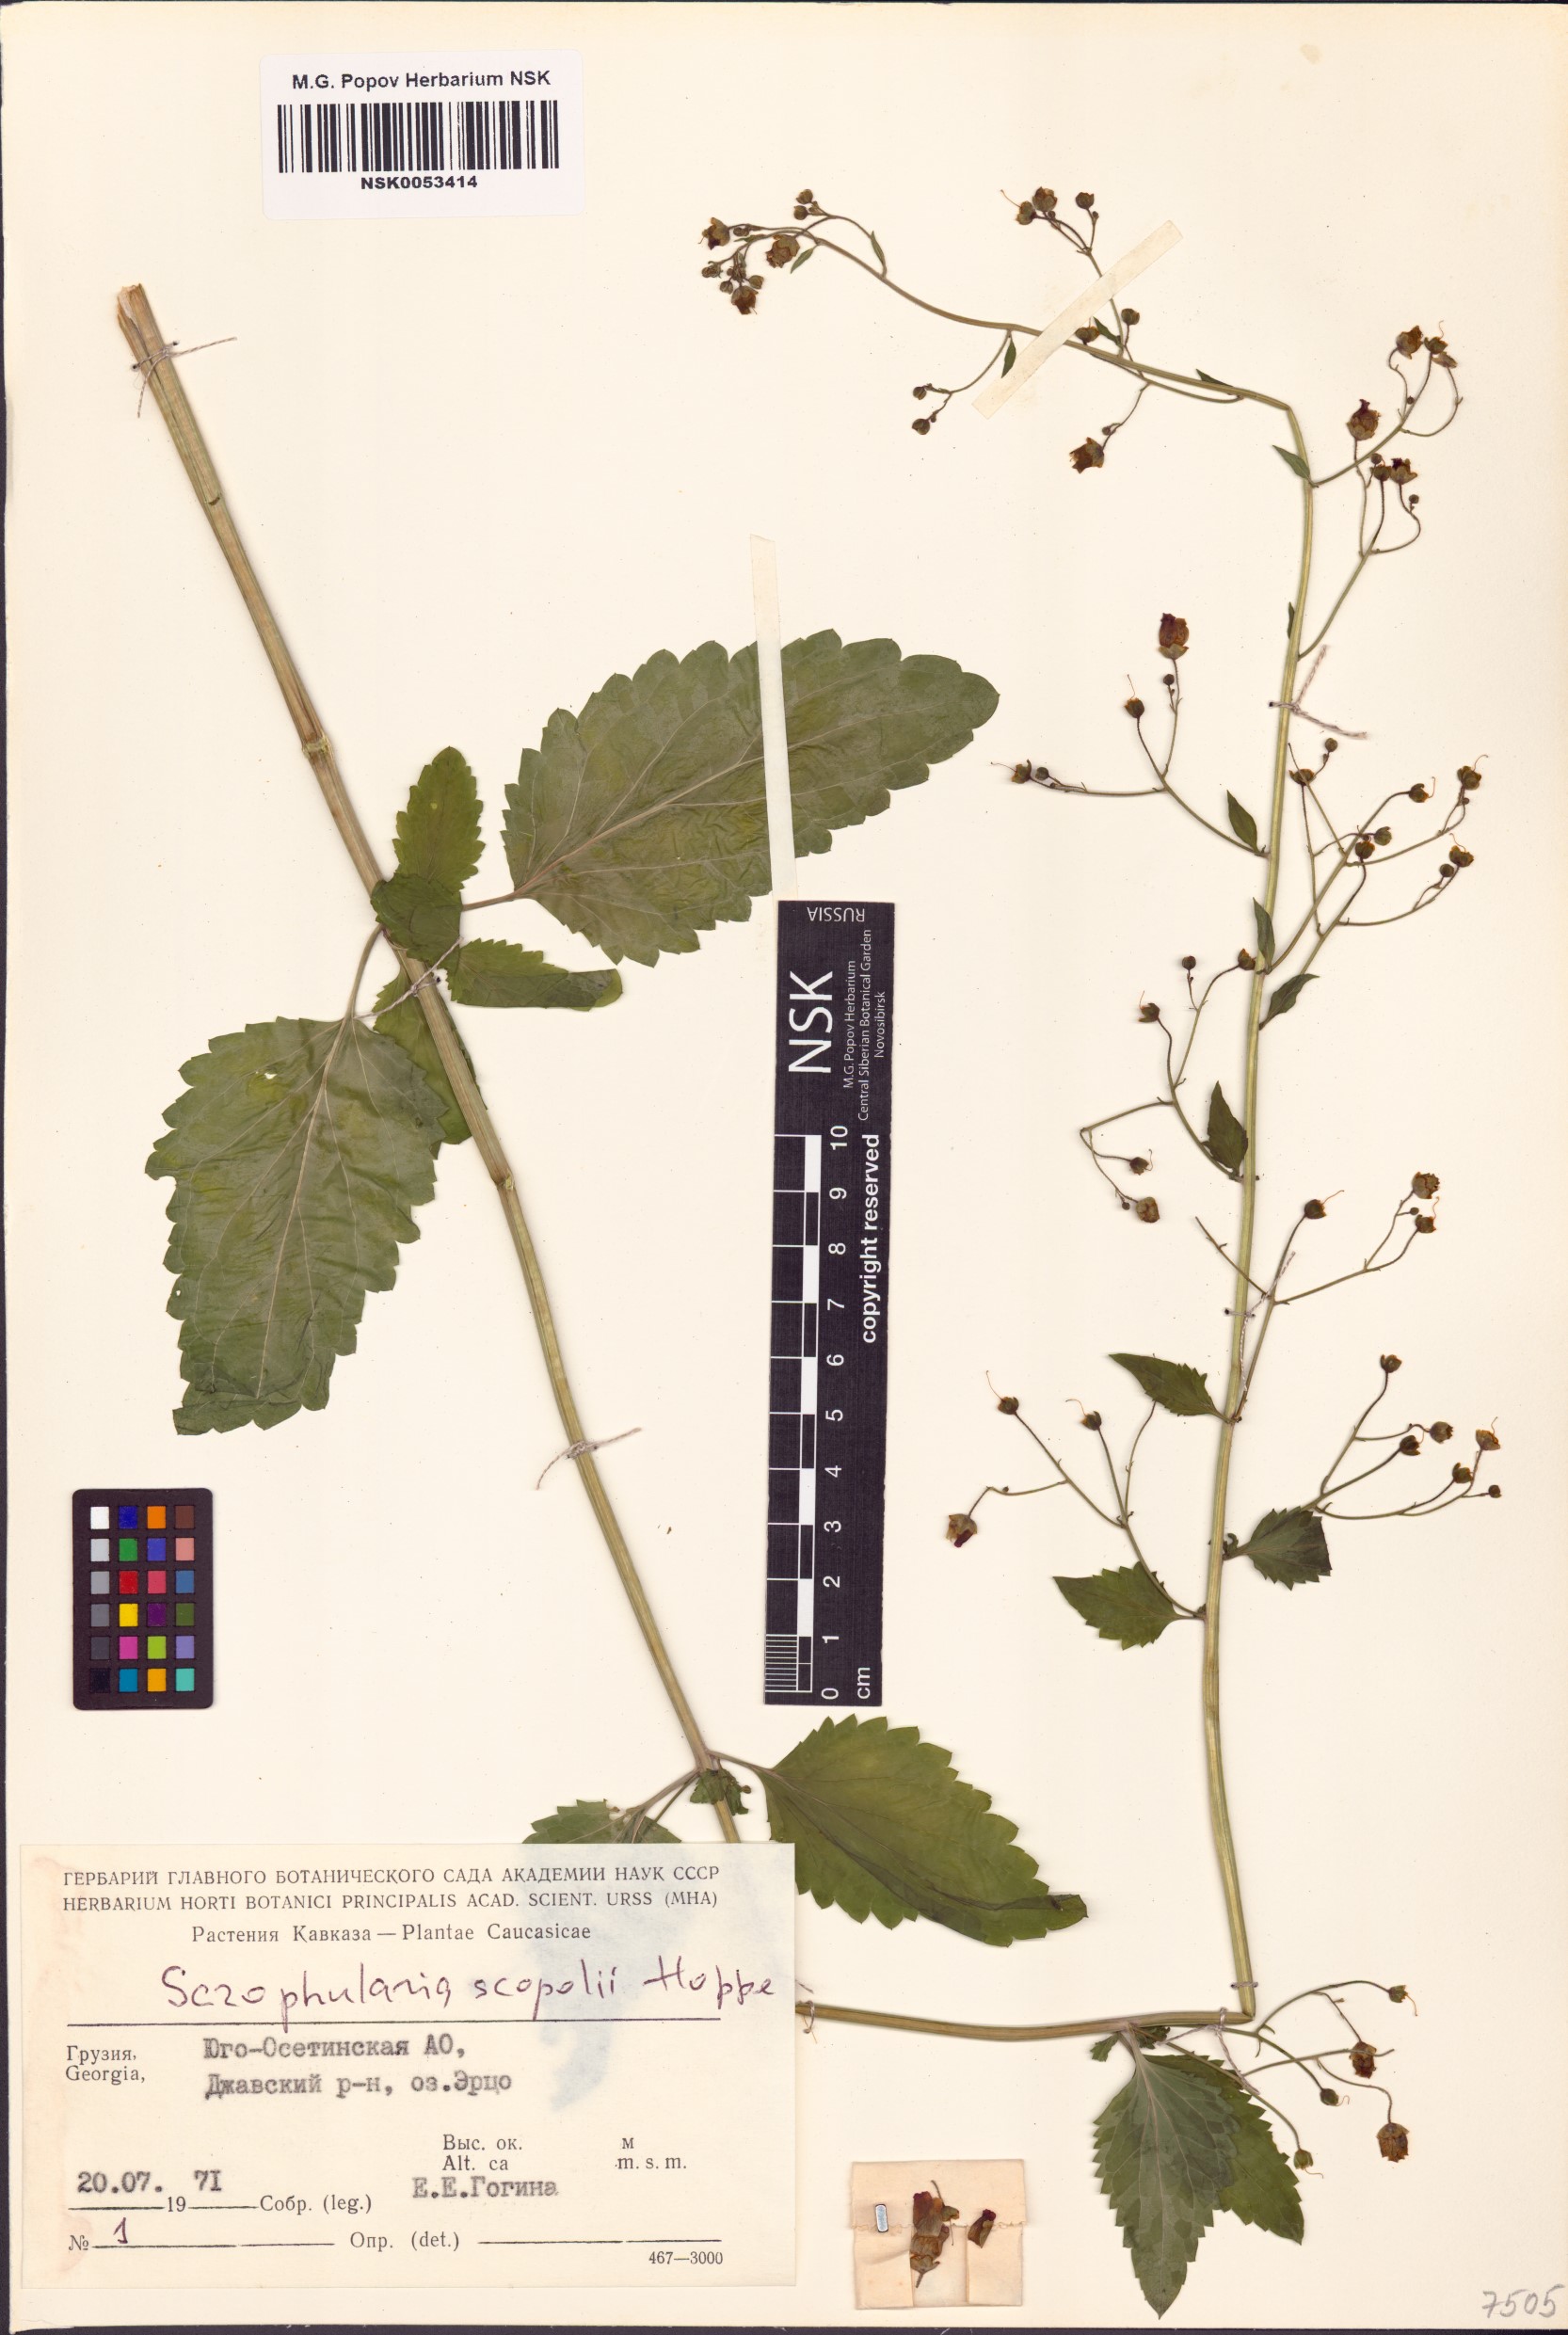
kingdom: Plantae
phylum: Tracheophyta
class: Magnoliopsida
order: Lamiales
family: Scrophulariaceae
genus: Scrophularia
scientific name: Scrophularia scopolii
